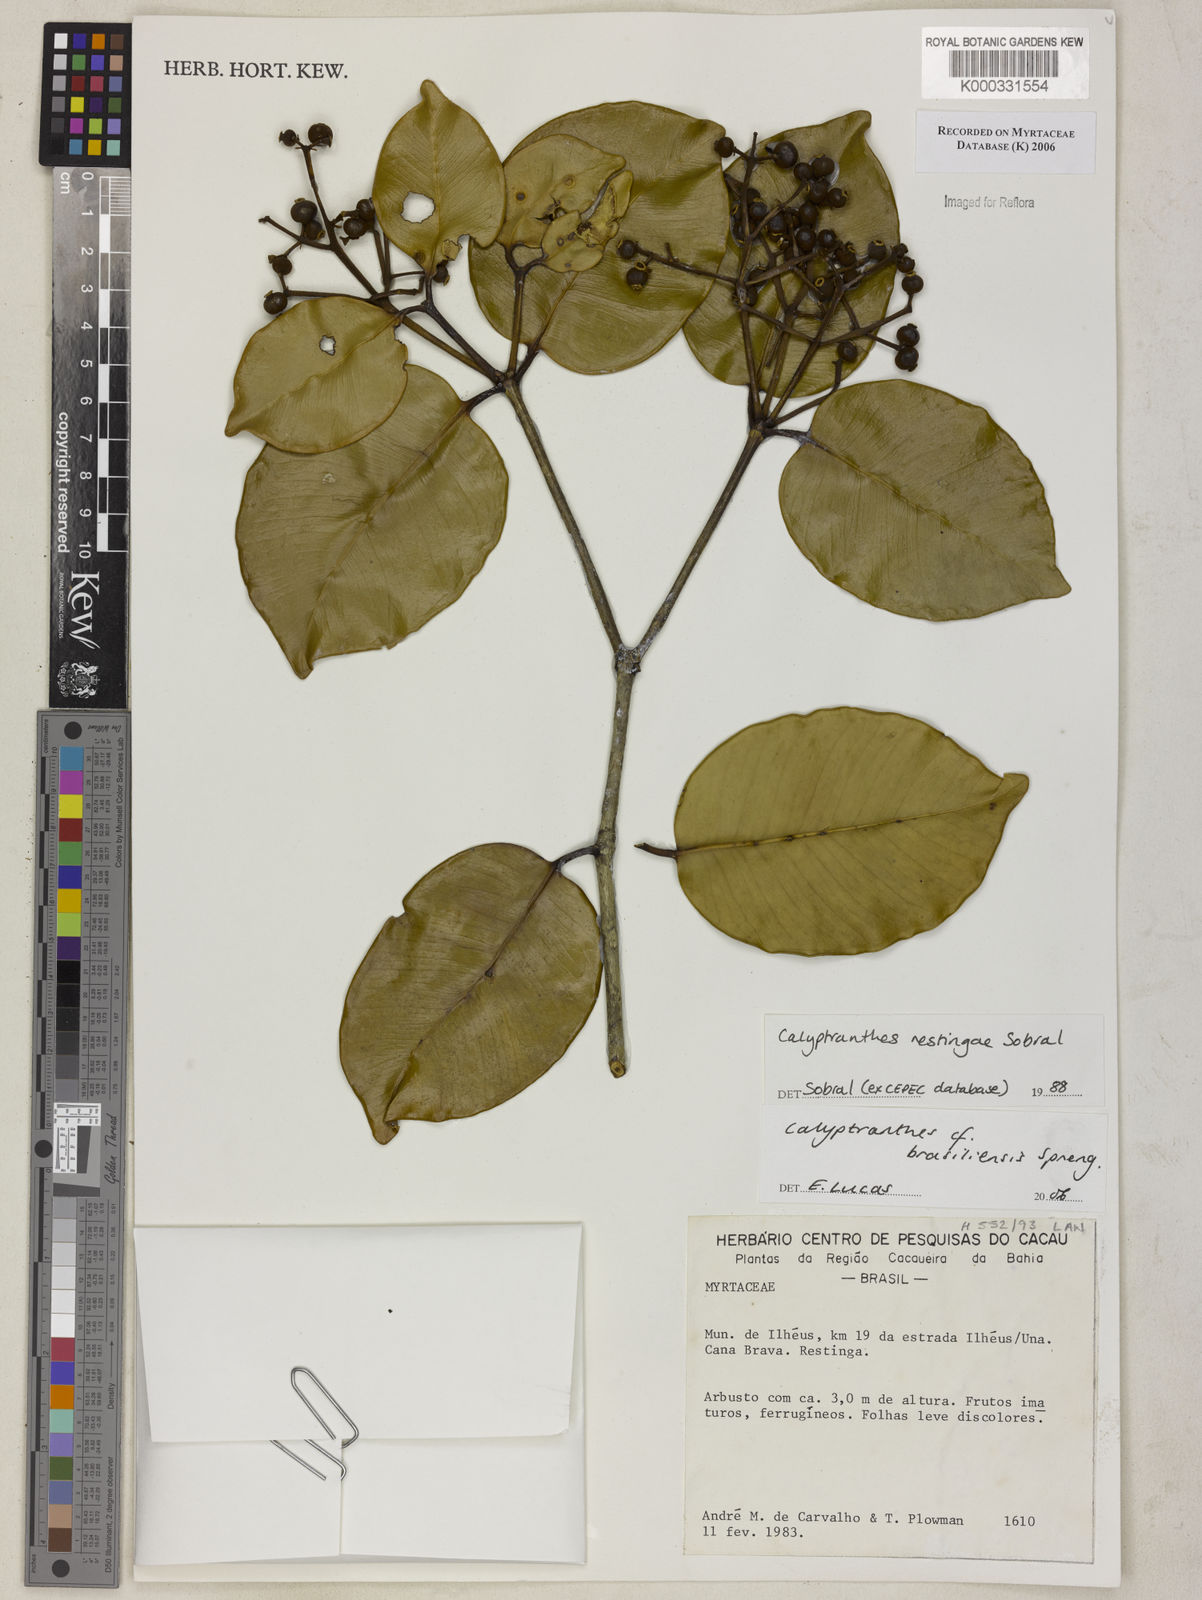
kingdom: Plantae
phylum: Tracheophyta
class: Magnoliopsida
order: Myrtales
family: Myrtaceae
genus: Myrcia
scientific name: Myrcia neobrasiliensis
